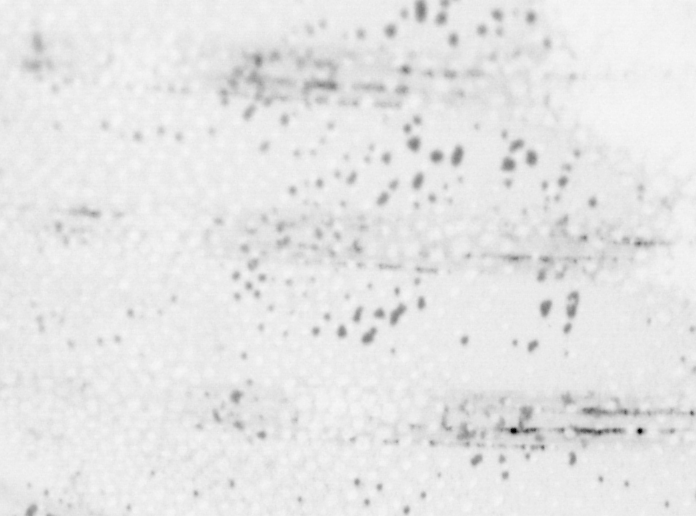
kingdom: Animalia
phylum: Chordata
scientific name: Chordata
